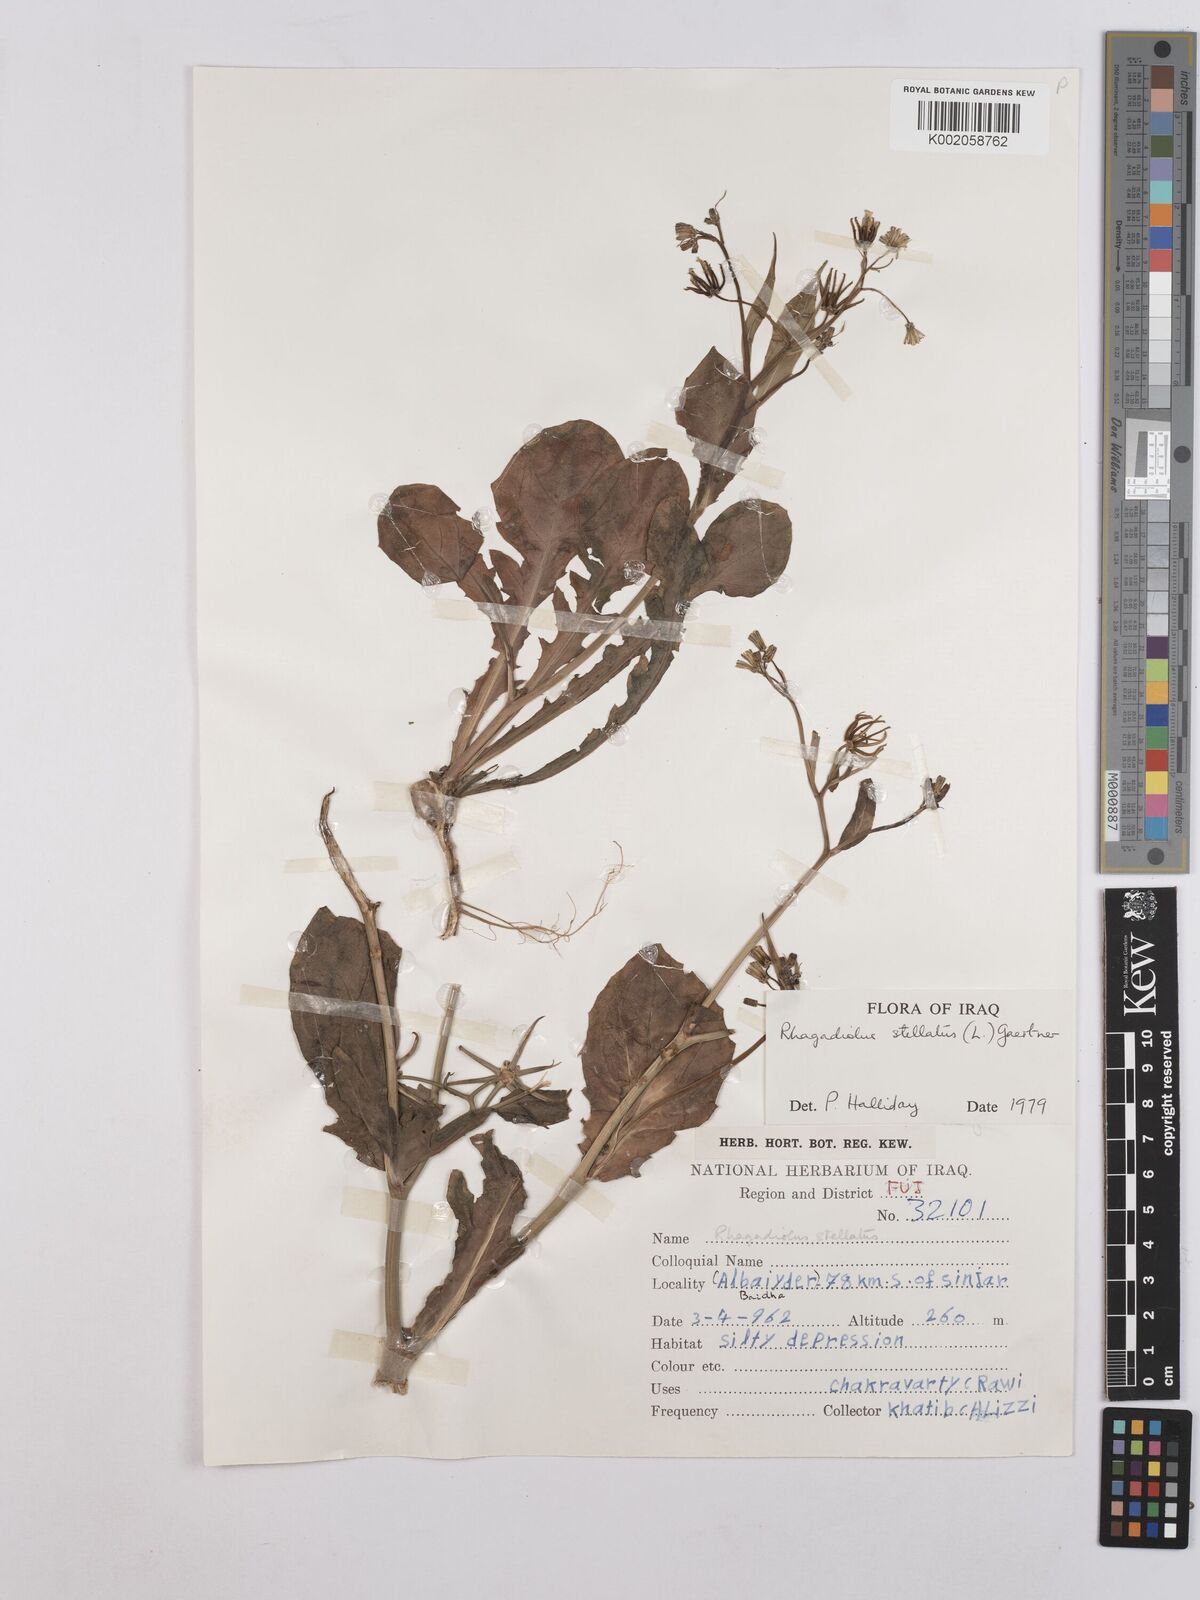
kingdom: Plantae
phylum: Tracheophyta
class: Magnoliopsida
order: Asterales
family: Asteraceae
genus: Rhagadiolus
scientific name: Rhagadiolus stellatus
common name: Star hawkbit
